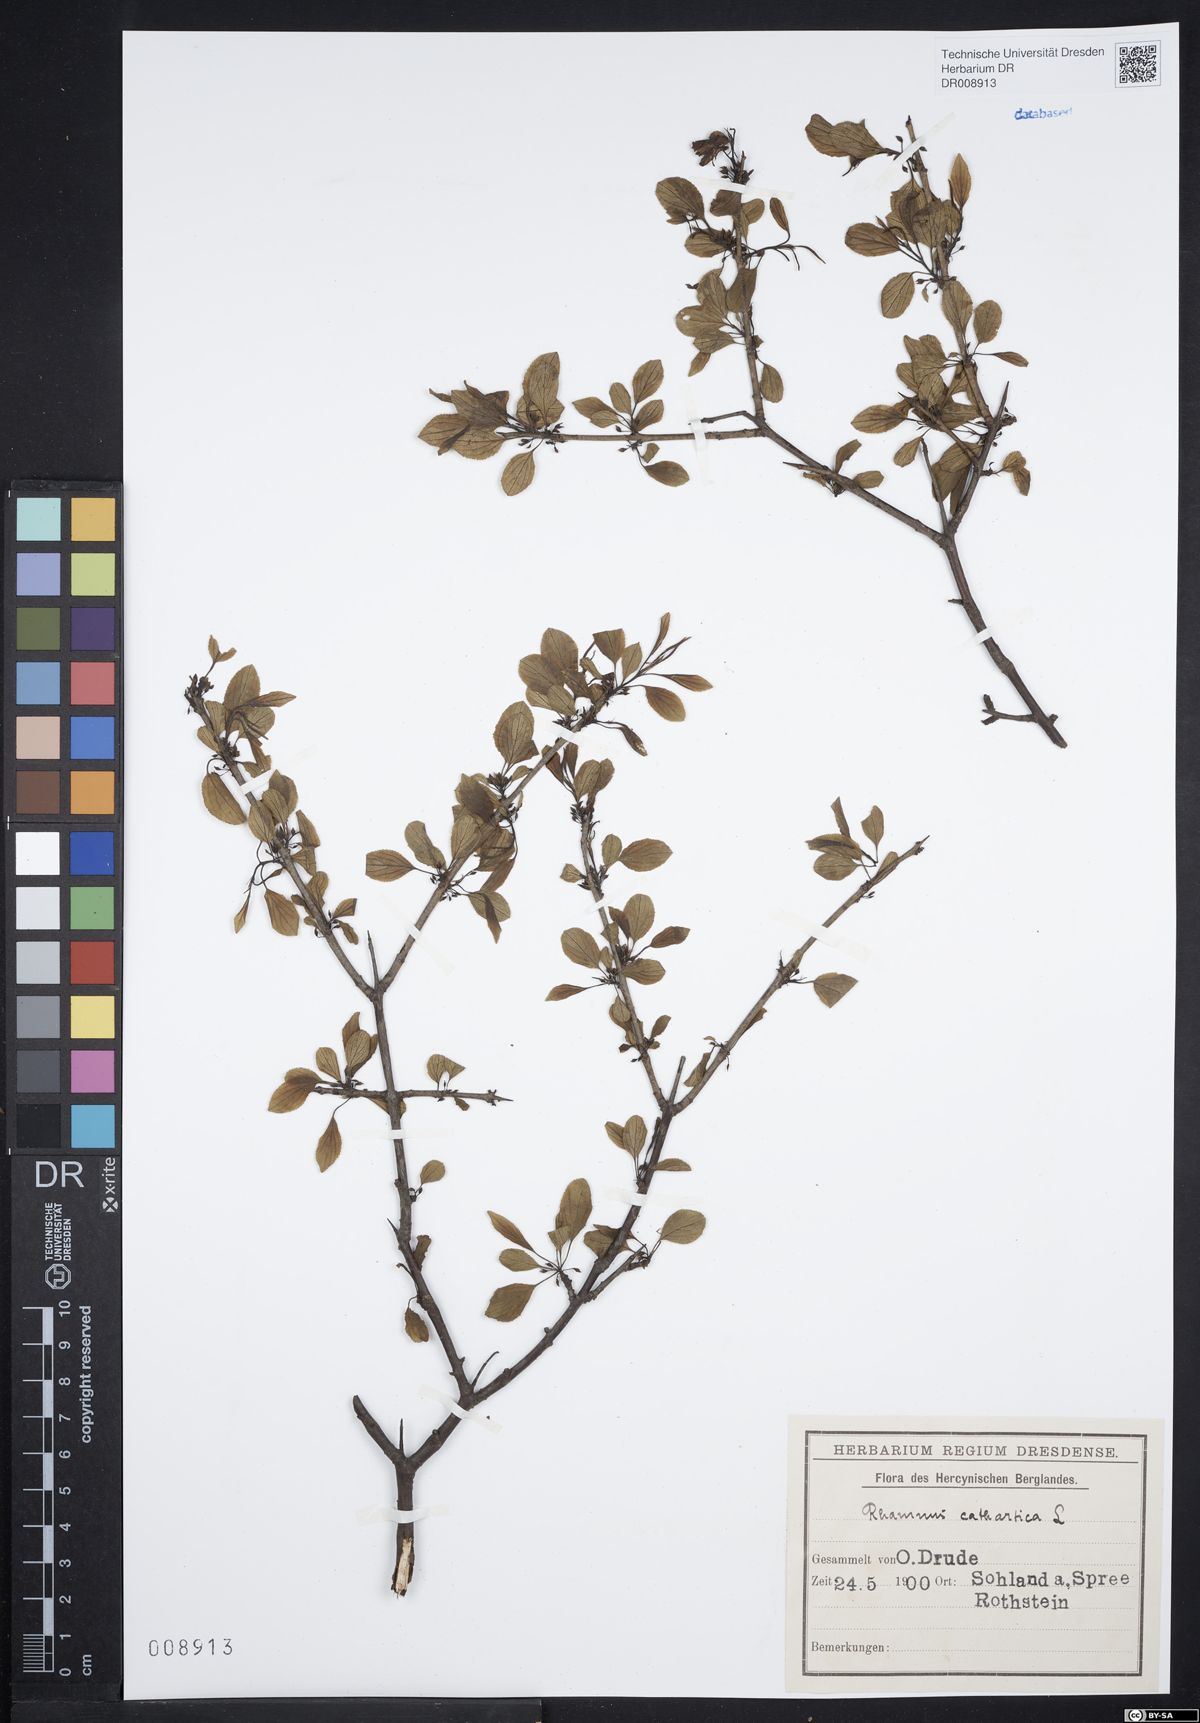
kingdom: Plantae
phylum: Tracheophyta
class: Magnoliopsida
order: Rosales
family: Rhamnaceae
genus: Rhamnus
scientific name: Rhamnus cathartica
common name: Common buckthorn
